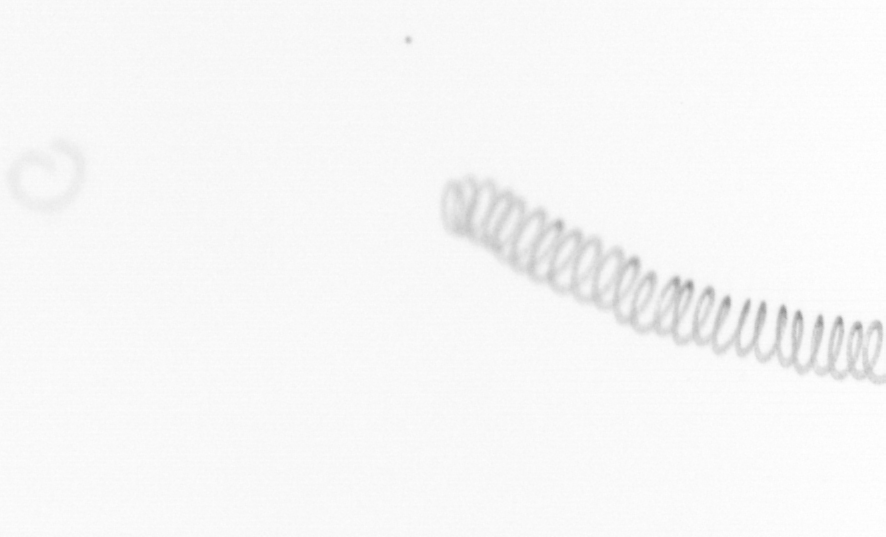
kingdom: Chromista
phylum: Ochrophyta
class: Bacillariophyceae
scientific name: Bacillariophyceae
